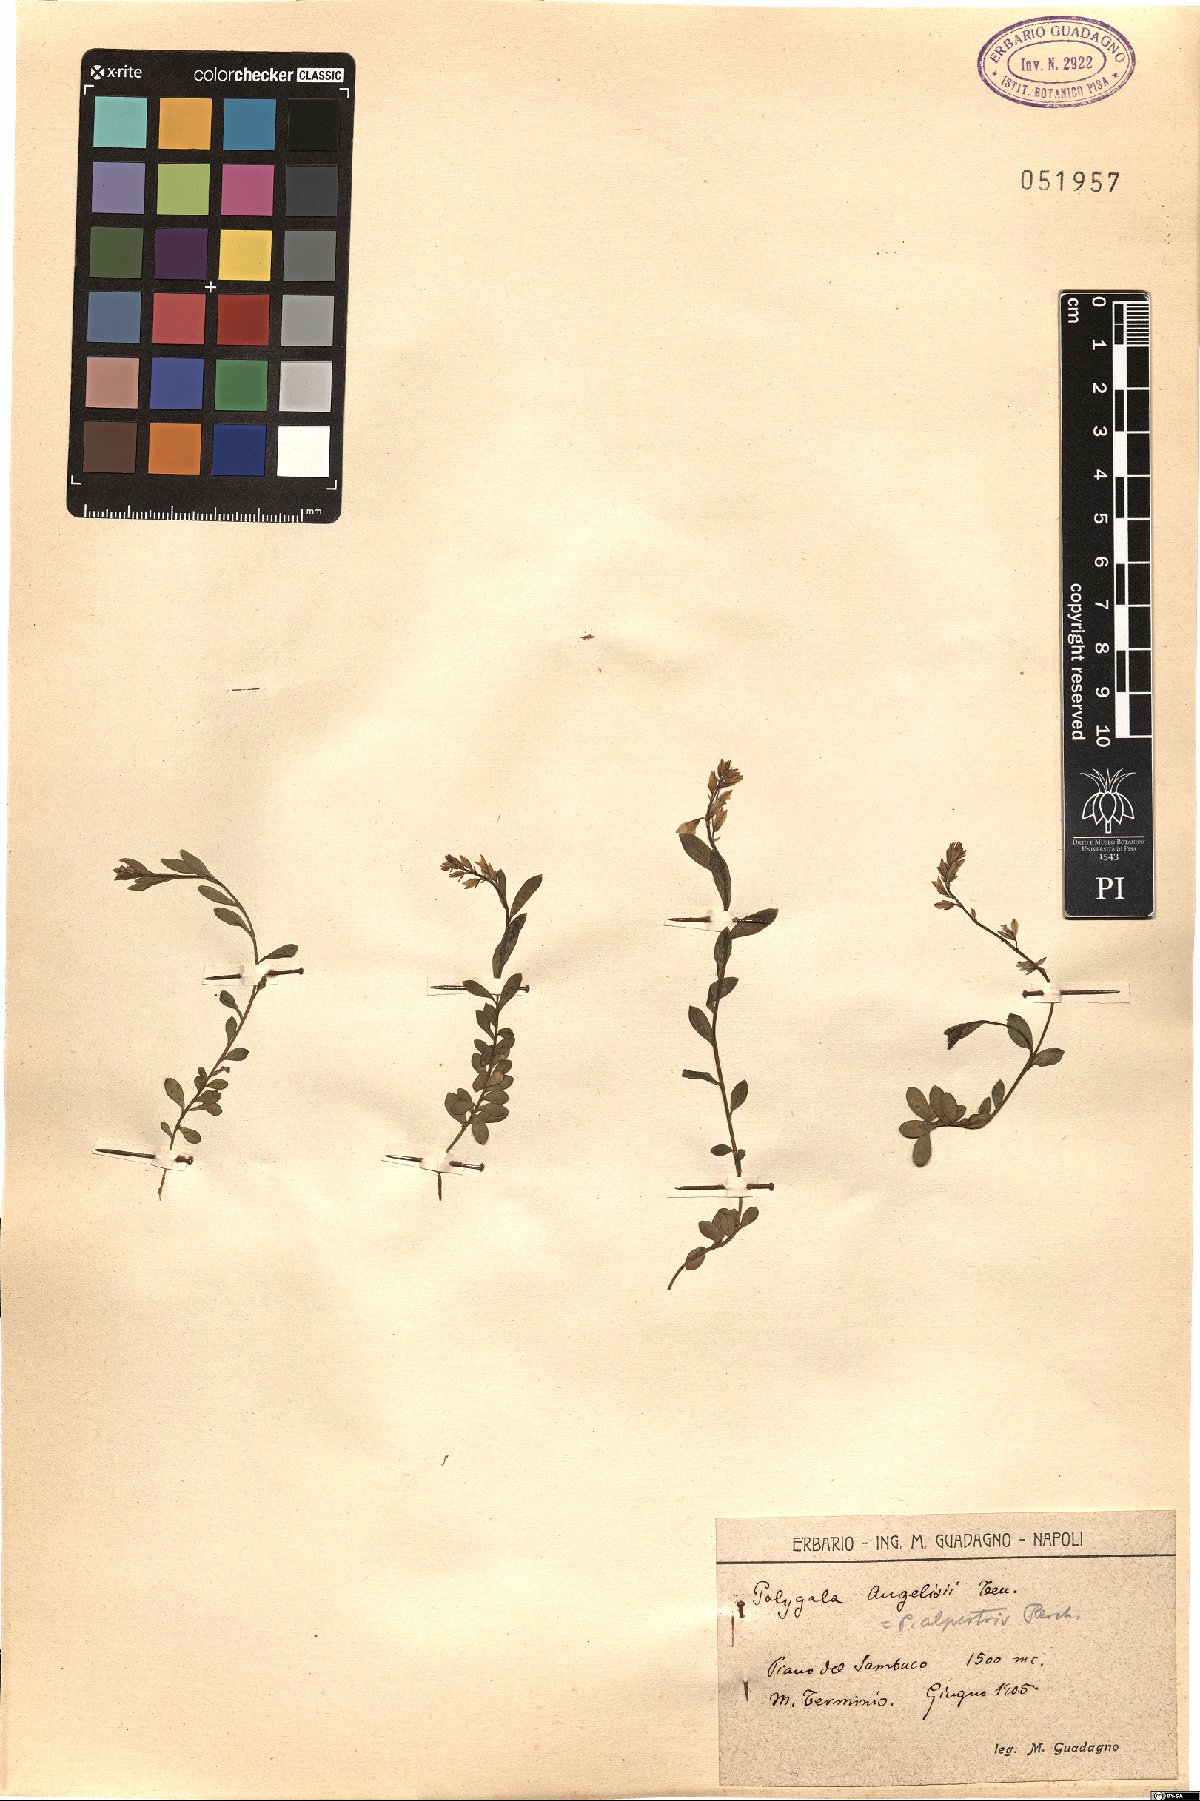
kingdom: Plantae
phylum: Tracheophyta
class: Magnoliopsida
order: Fabales
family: Polygalaceae
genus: Polygala
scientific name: Polygala angelisia
